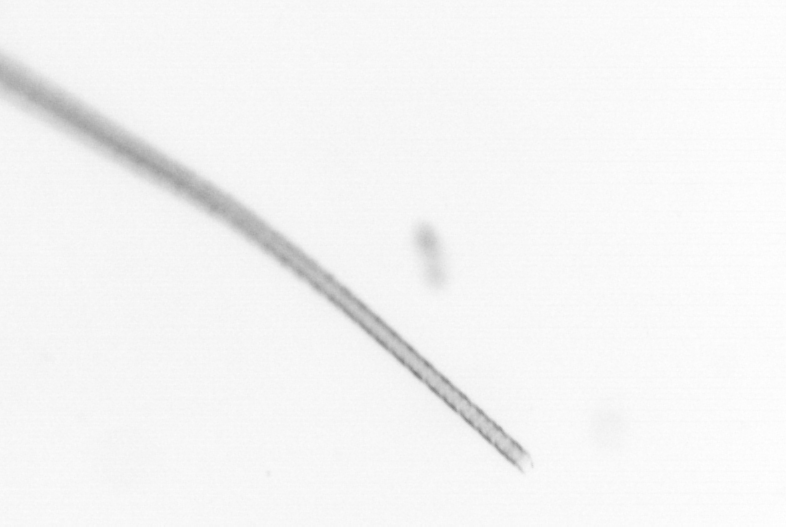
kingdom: Chromista
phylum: Ochrophyta
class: Bacillariophyceae
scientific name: Bacillariophyceae
